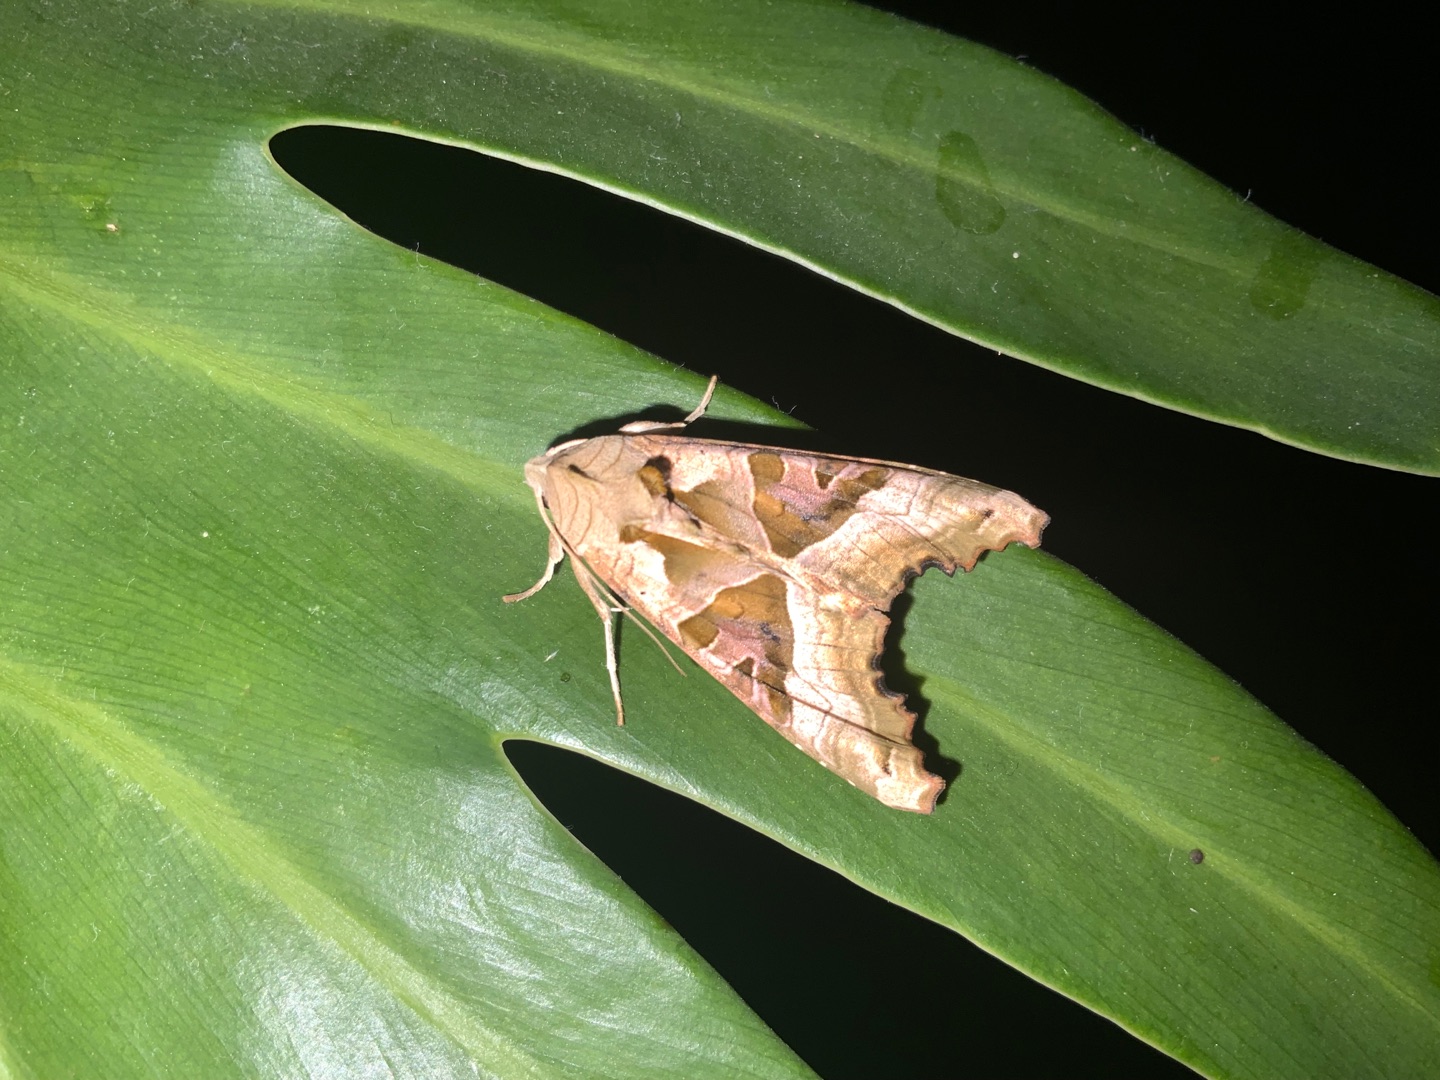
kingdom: Animalia
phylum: Arthropoda
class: Insecta
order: Lepidoptera
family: Noctuidae
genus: Phlogophora
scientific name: Phlogophora meticulosa
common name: Agatugle
